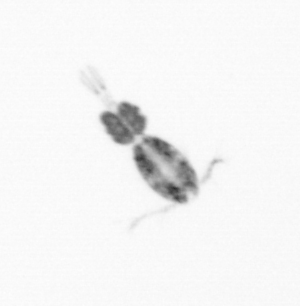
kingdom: Animalia
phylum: Arthropoda
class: Copepoda
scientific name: Copepoda
